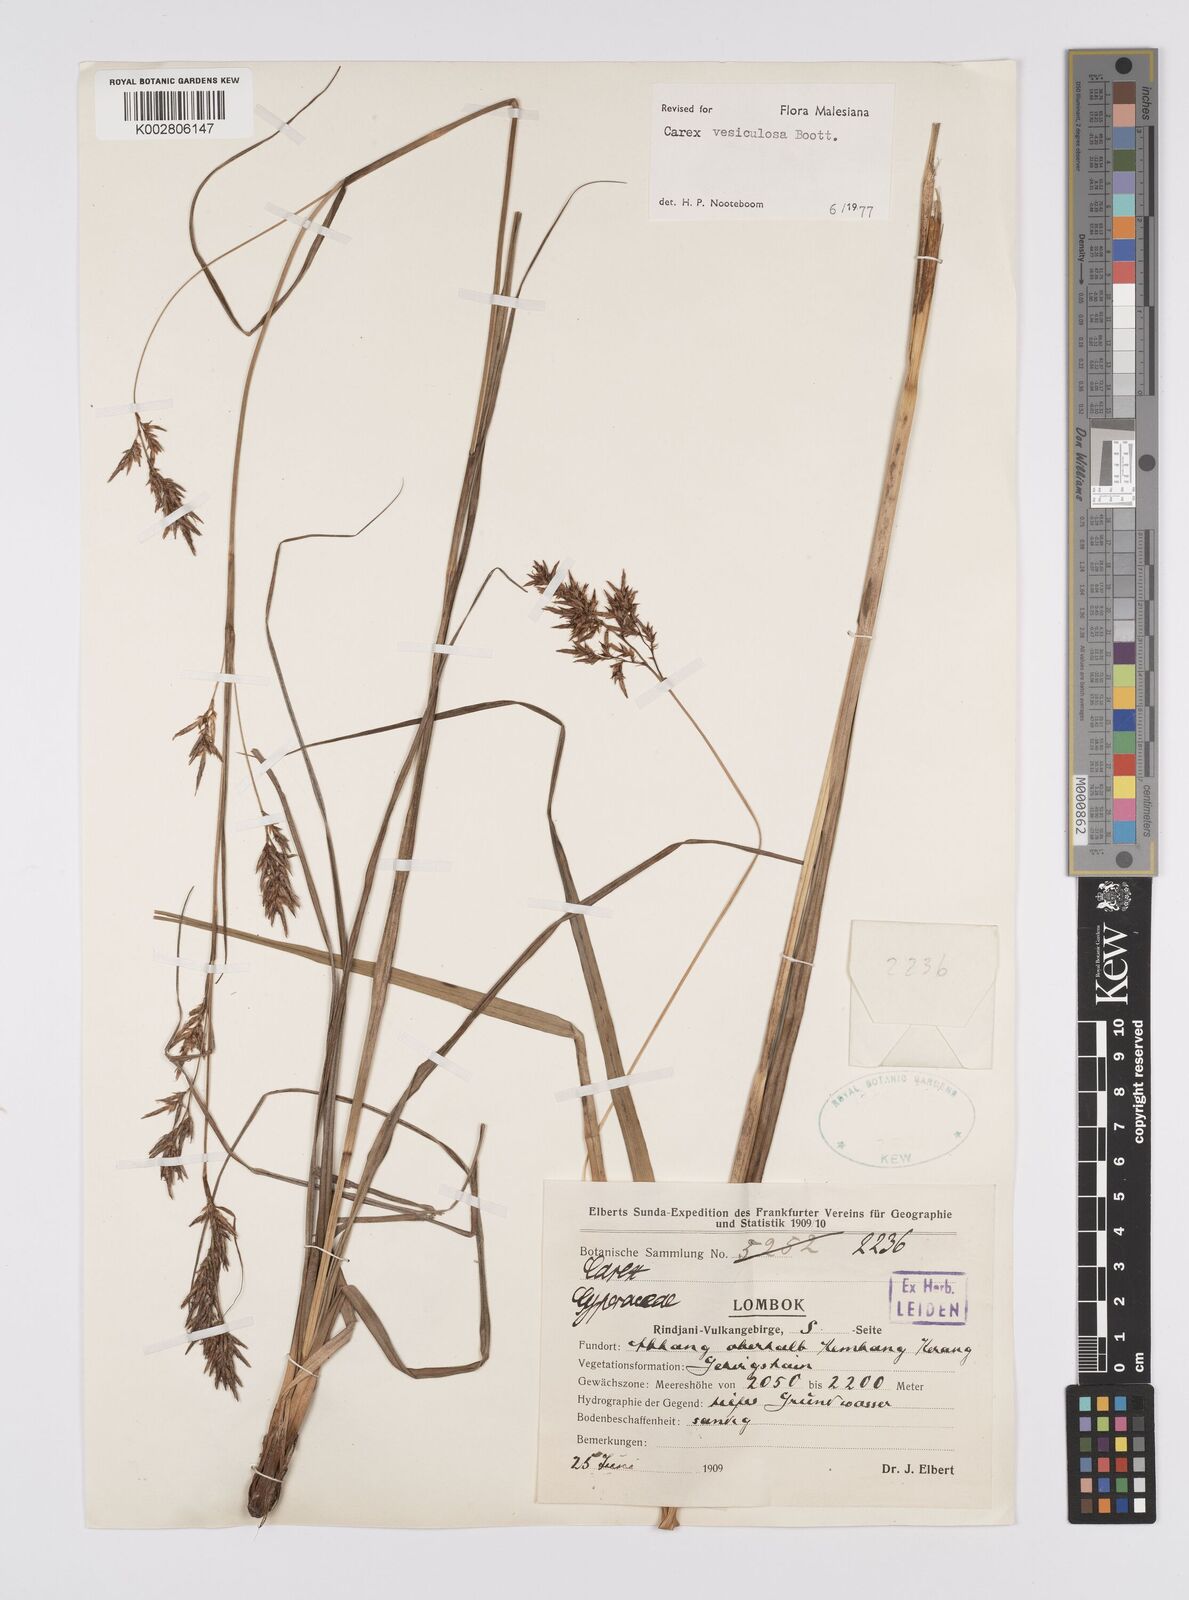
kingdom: Plantae
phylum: Tracheophyta
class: Liliopsida
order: Poales
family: Cyperaceae
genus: Carex
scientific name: Carex vesiculosa
